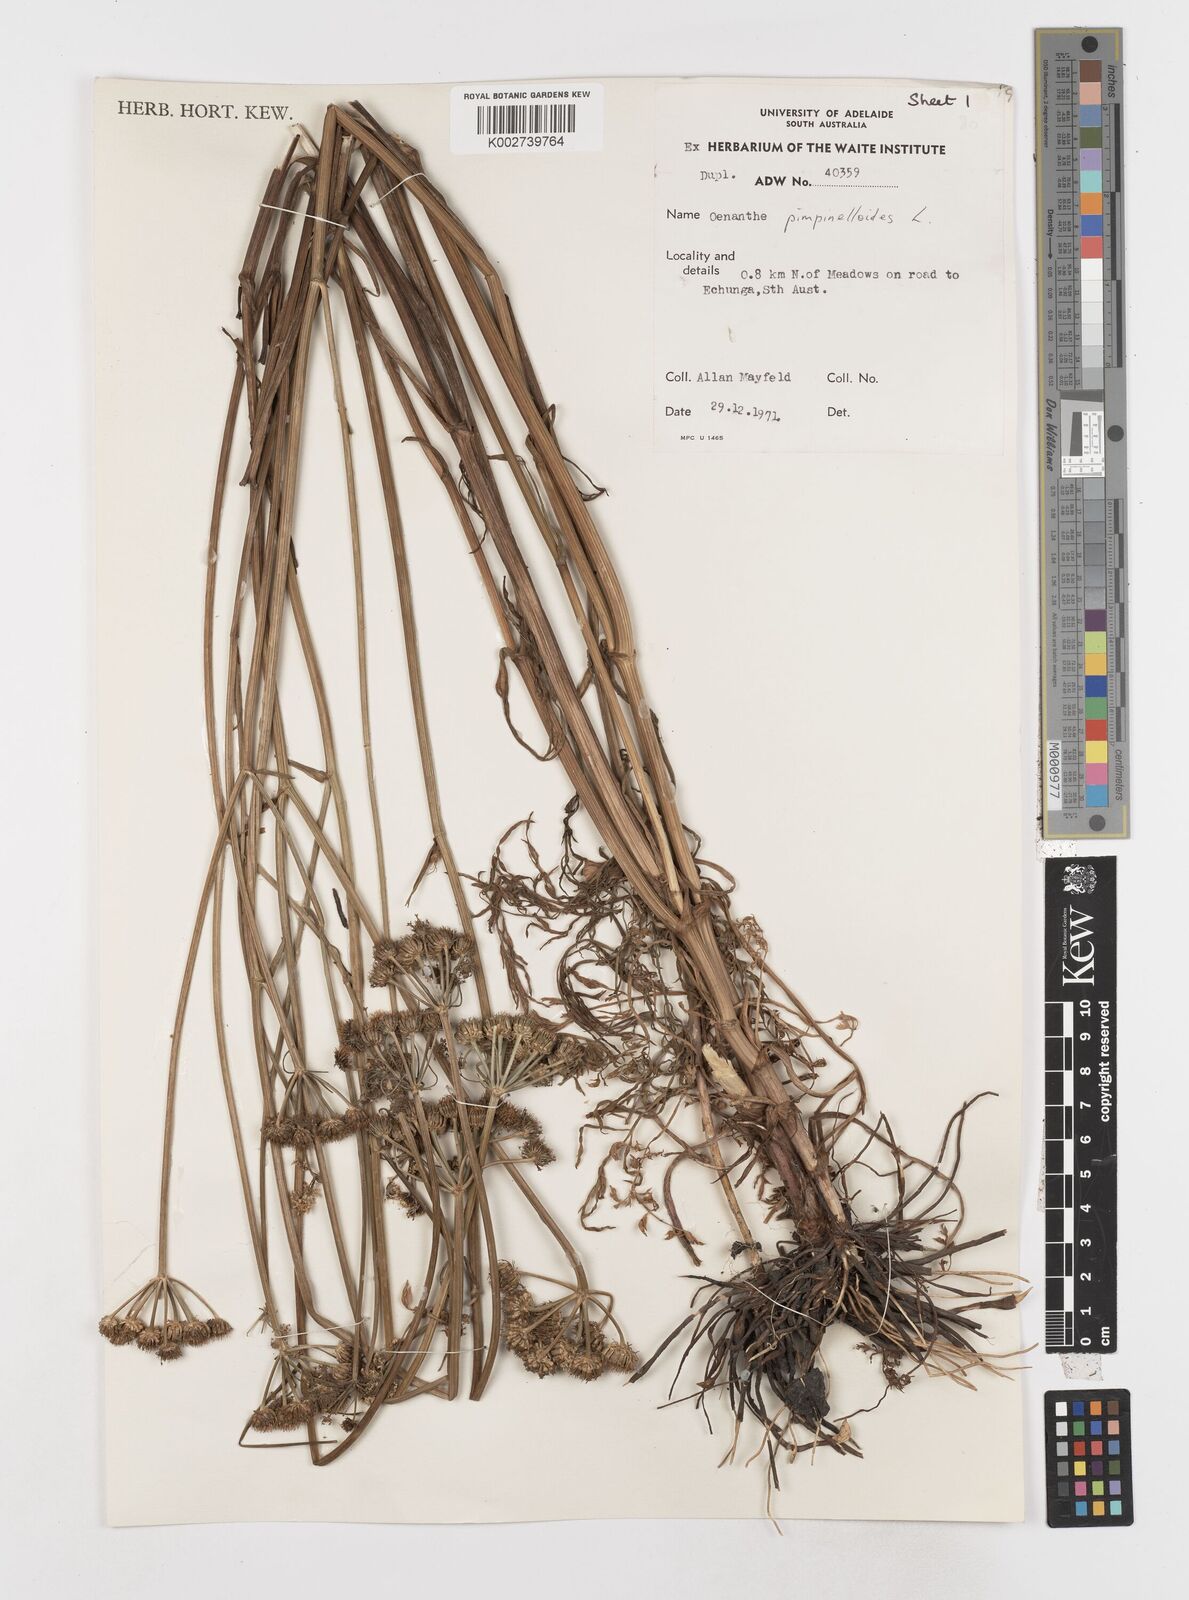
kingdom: Plantae
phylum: Tracheophyta
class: Magnoliopsida
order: Apiales
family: Apiaceae
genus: Oenanthe
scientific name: Oenanthe pimpinelloides
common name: Corky-fruited water-dropwort
